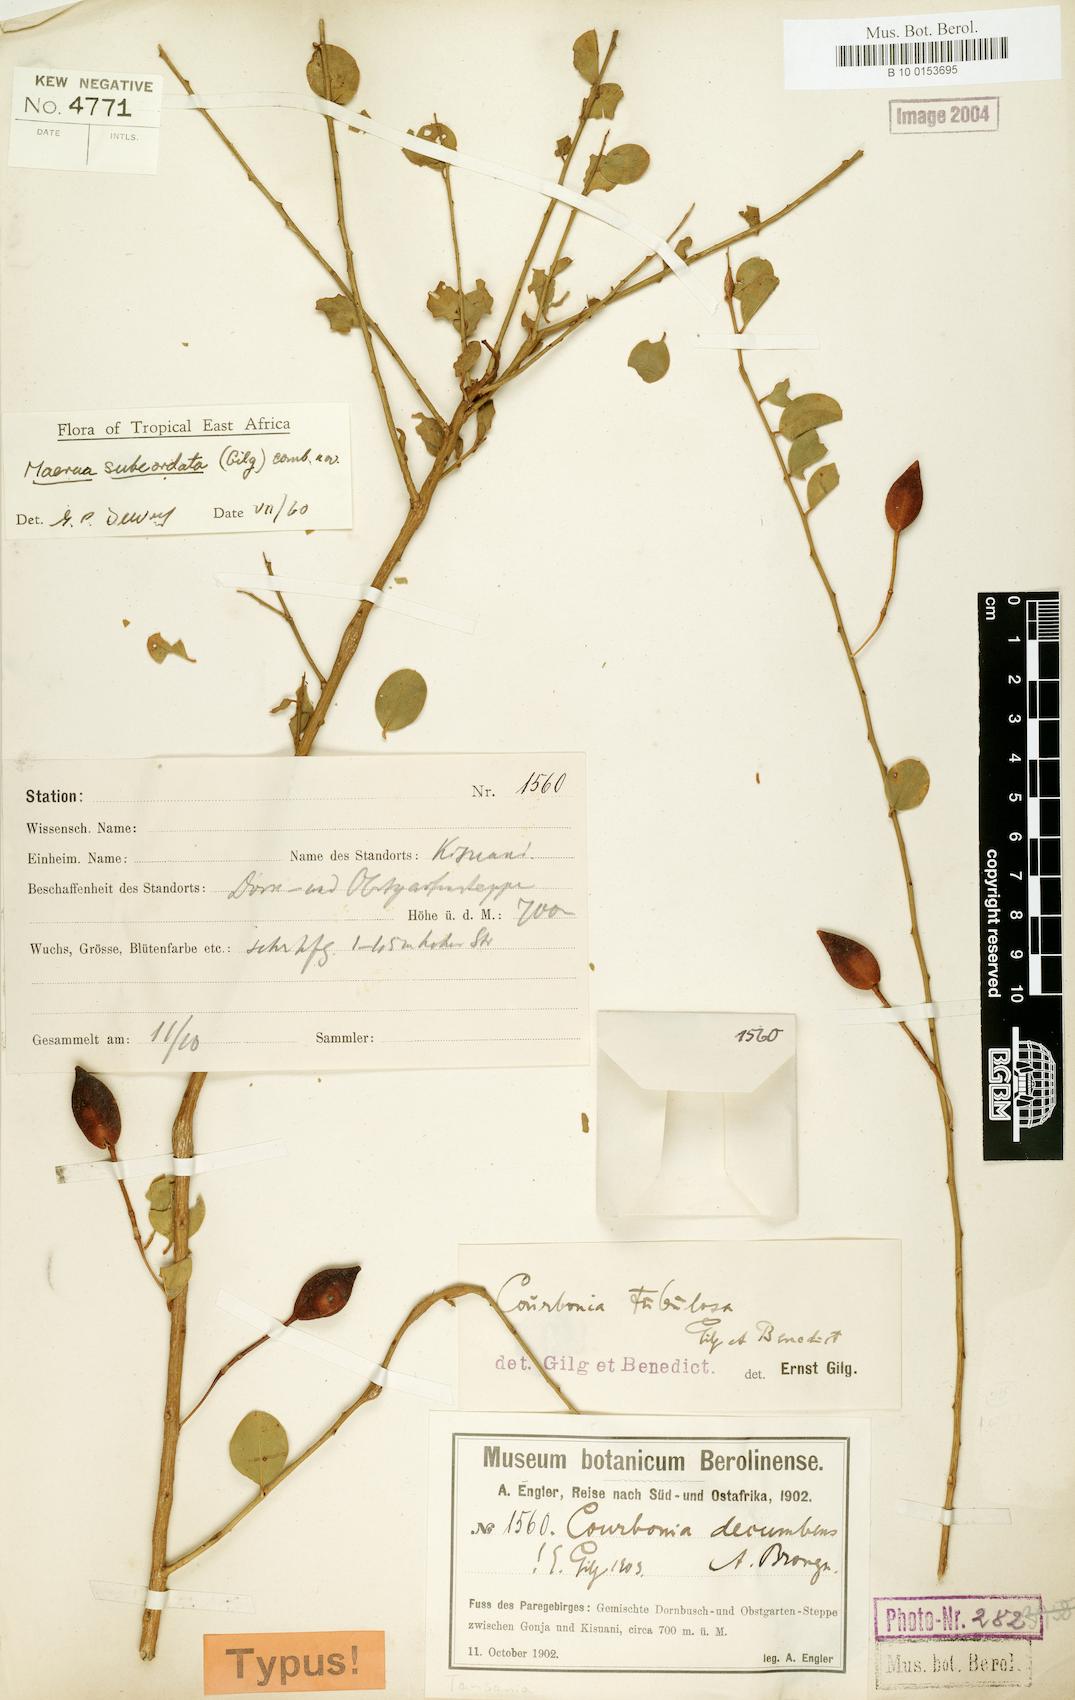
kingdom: Plantae
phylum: Tracheophyta
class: Magnoliopsida
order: Brassicales
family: Capparaceae
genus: Maerua
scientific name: Maerua subcordata
